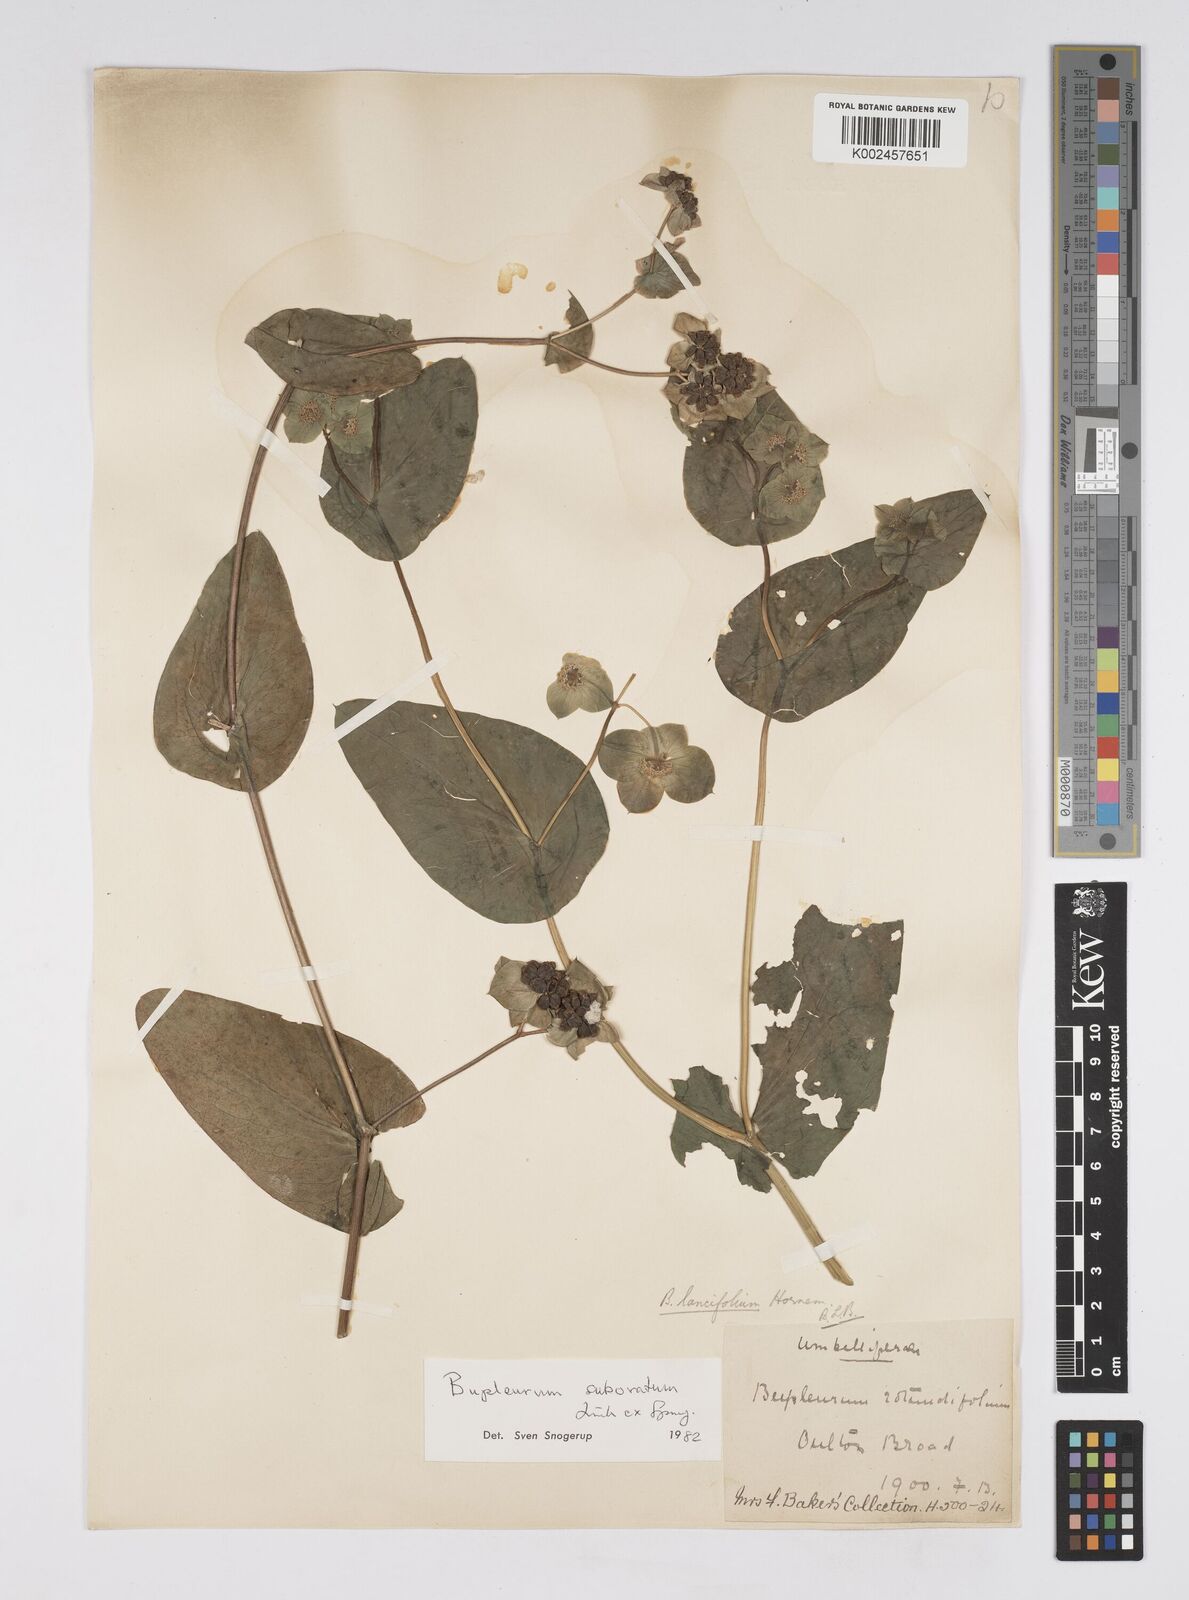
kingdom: Plantae
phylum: Tracheophyta
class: Magnoliopsida
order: Apiales
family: Apiaceae
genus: Bupleurum
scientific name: Bupleurum subovatum
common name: False thorow-wax
